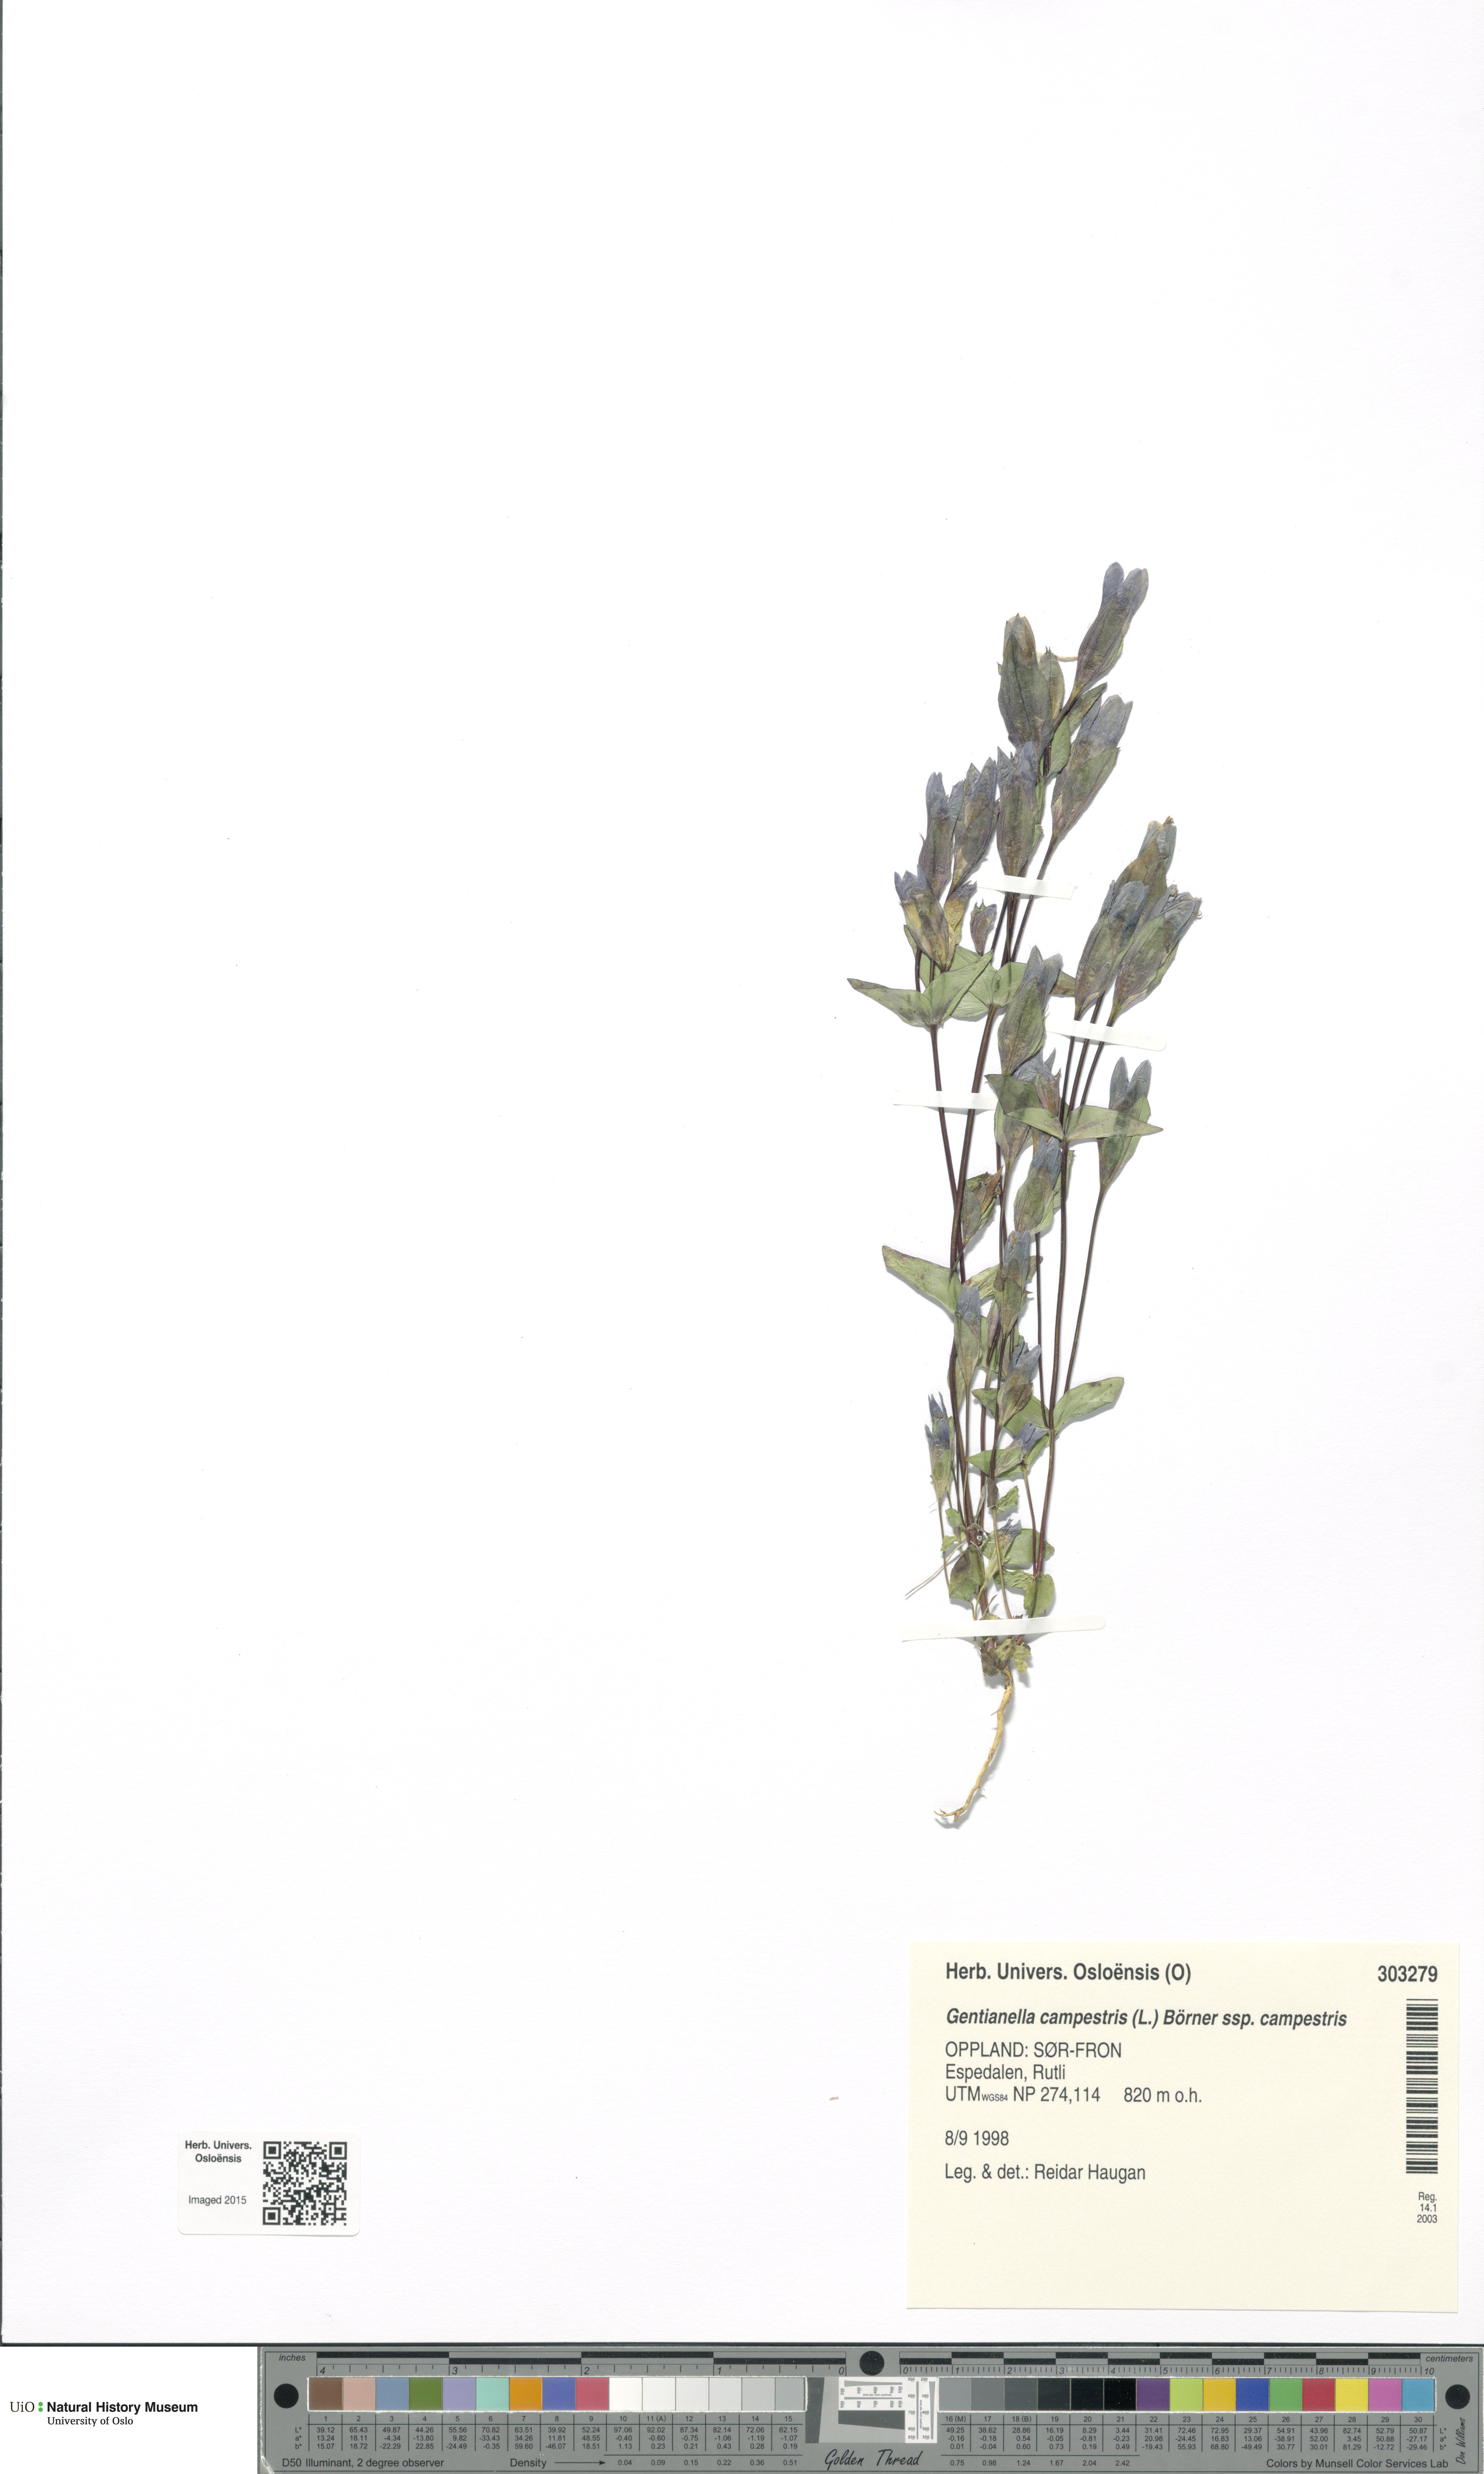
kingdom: Plantae
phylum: Tracheophyta
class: Magnoliopsida
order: Gentianales
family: Gentianaceae
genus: Gentianella
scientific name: Gentianella campestris
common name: Field gentian
